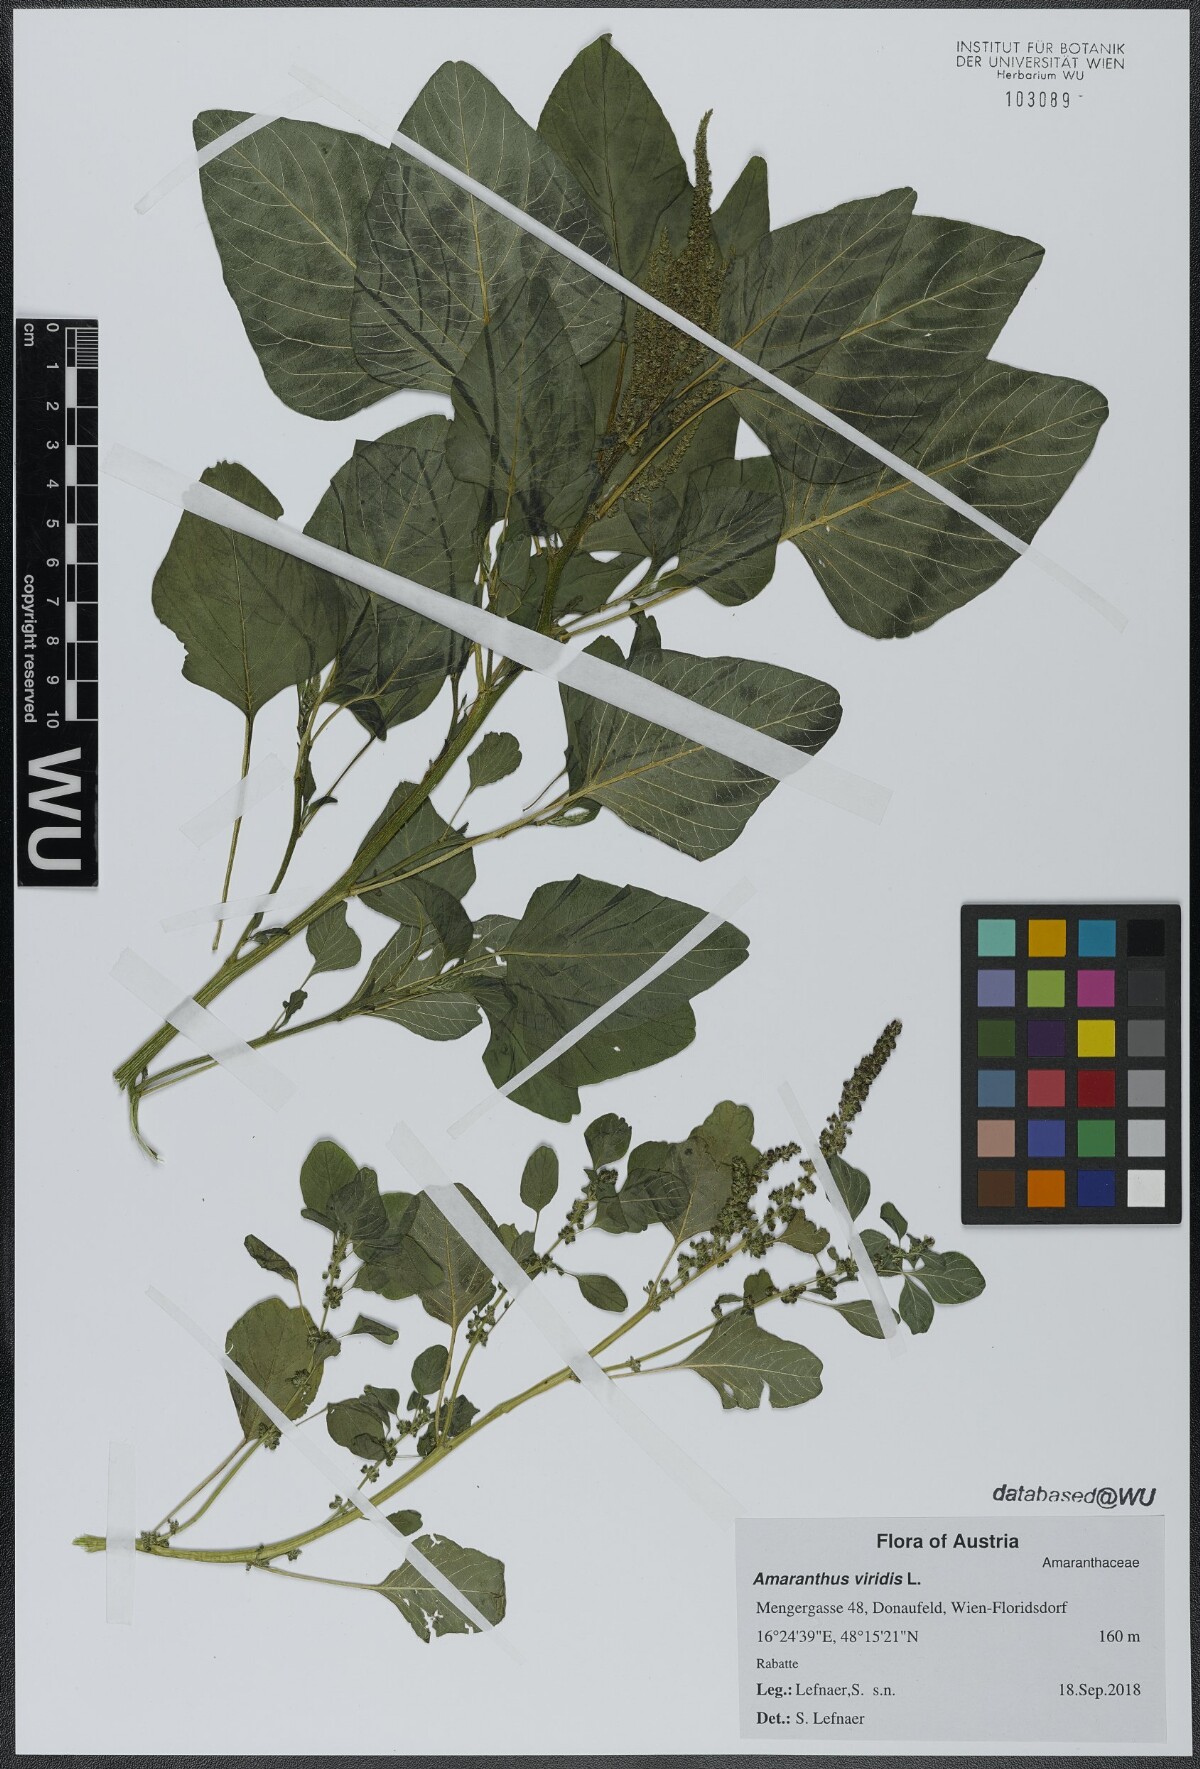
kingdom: Plantae
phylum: Tracheophyta
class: Magnoliopsida
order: Caryophyllales
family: Amaranthaceae
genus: Amaranthus
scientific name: Amaranthus viridis
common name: Slender amaranth
